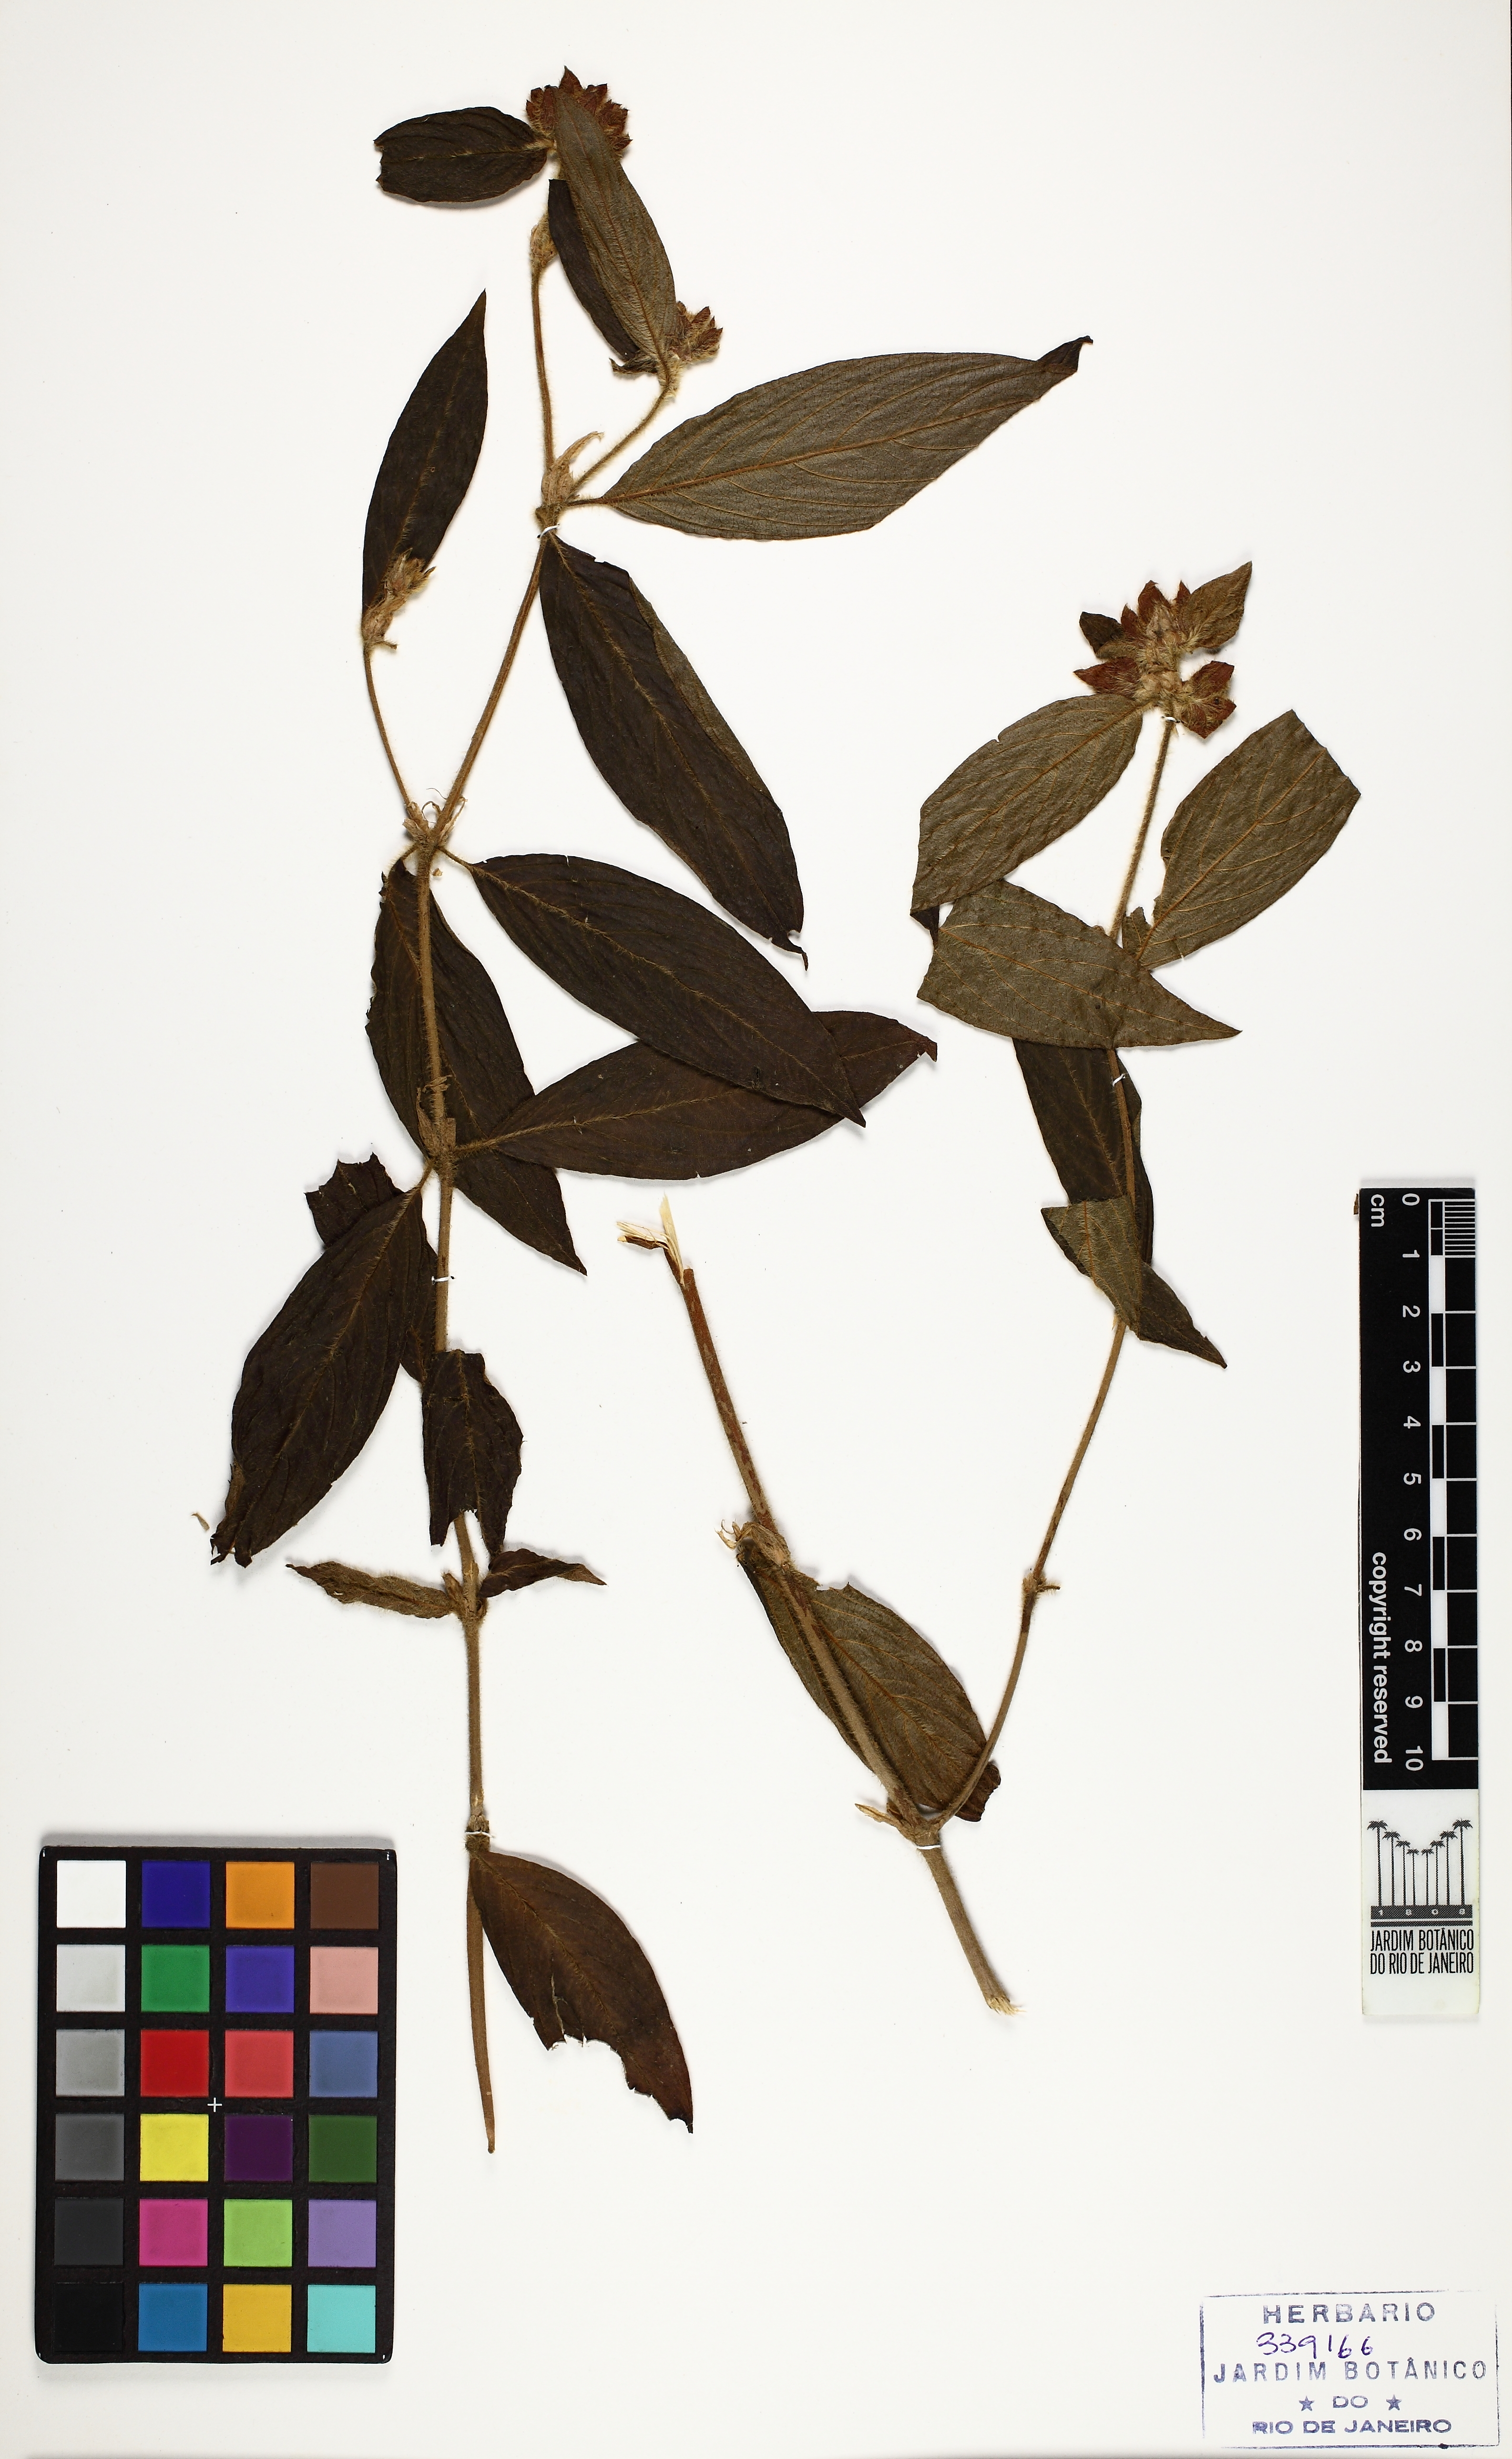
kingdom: Plantae
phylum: Tracheophyta
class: Magnoliopsida
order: Lamiales
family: Verbenaceae
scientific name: Verbenaceae
